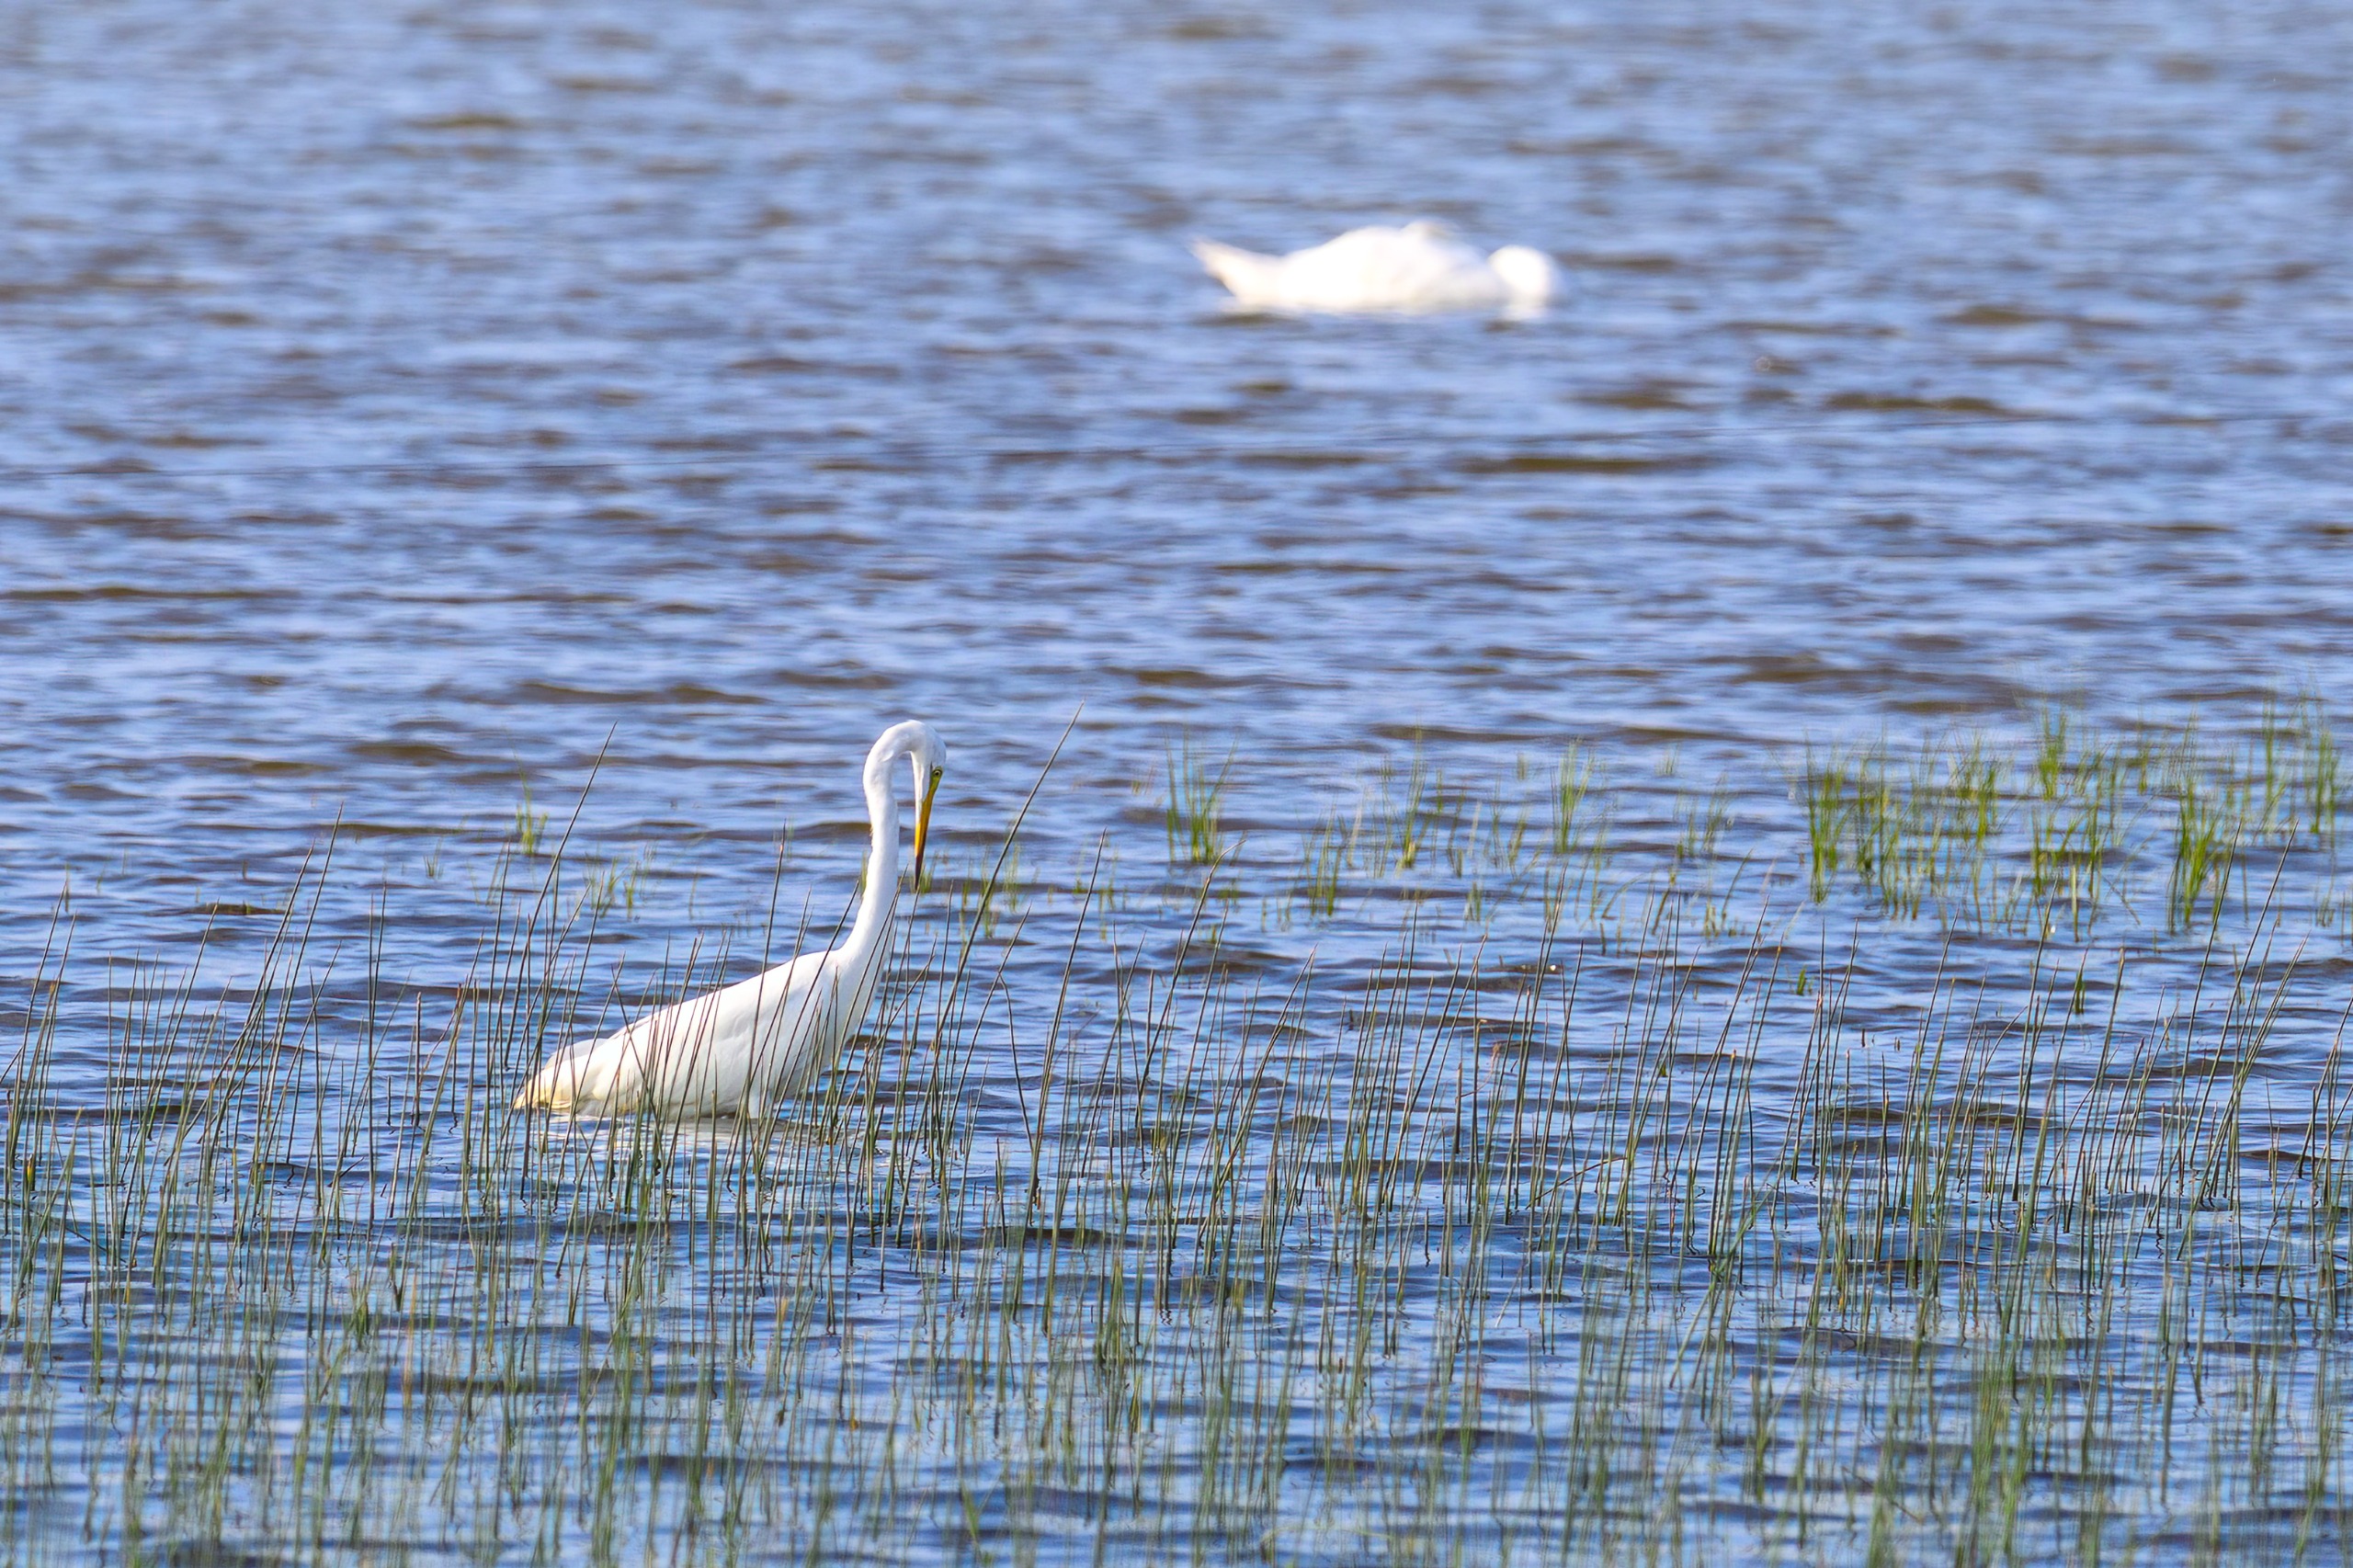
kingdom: Animalia
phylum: Chordata
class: Aves
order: Pelecaniformes
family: Ardeidae
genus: Ardea
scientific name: Ardea alba
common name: Sølvhejre
